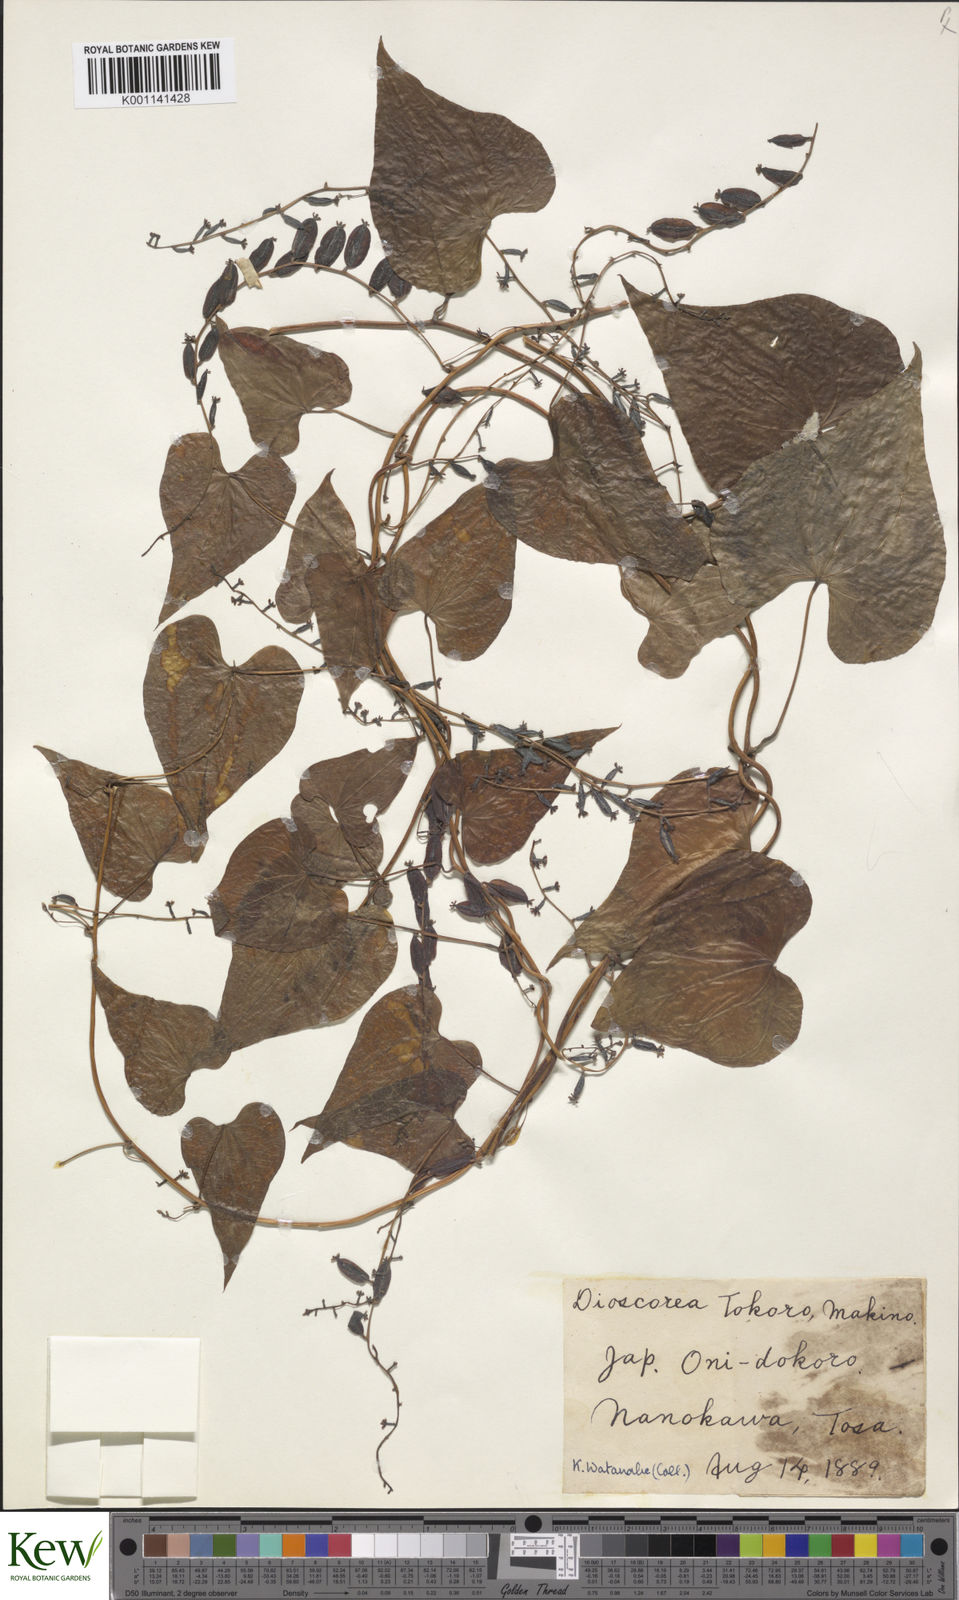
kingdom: Plantae
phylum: Tracheophyta
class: Liliopsida
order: Dioscoreales
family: Dioscoreaceae
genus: Dioscorea
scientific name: Dioscorea tokoro
